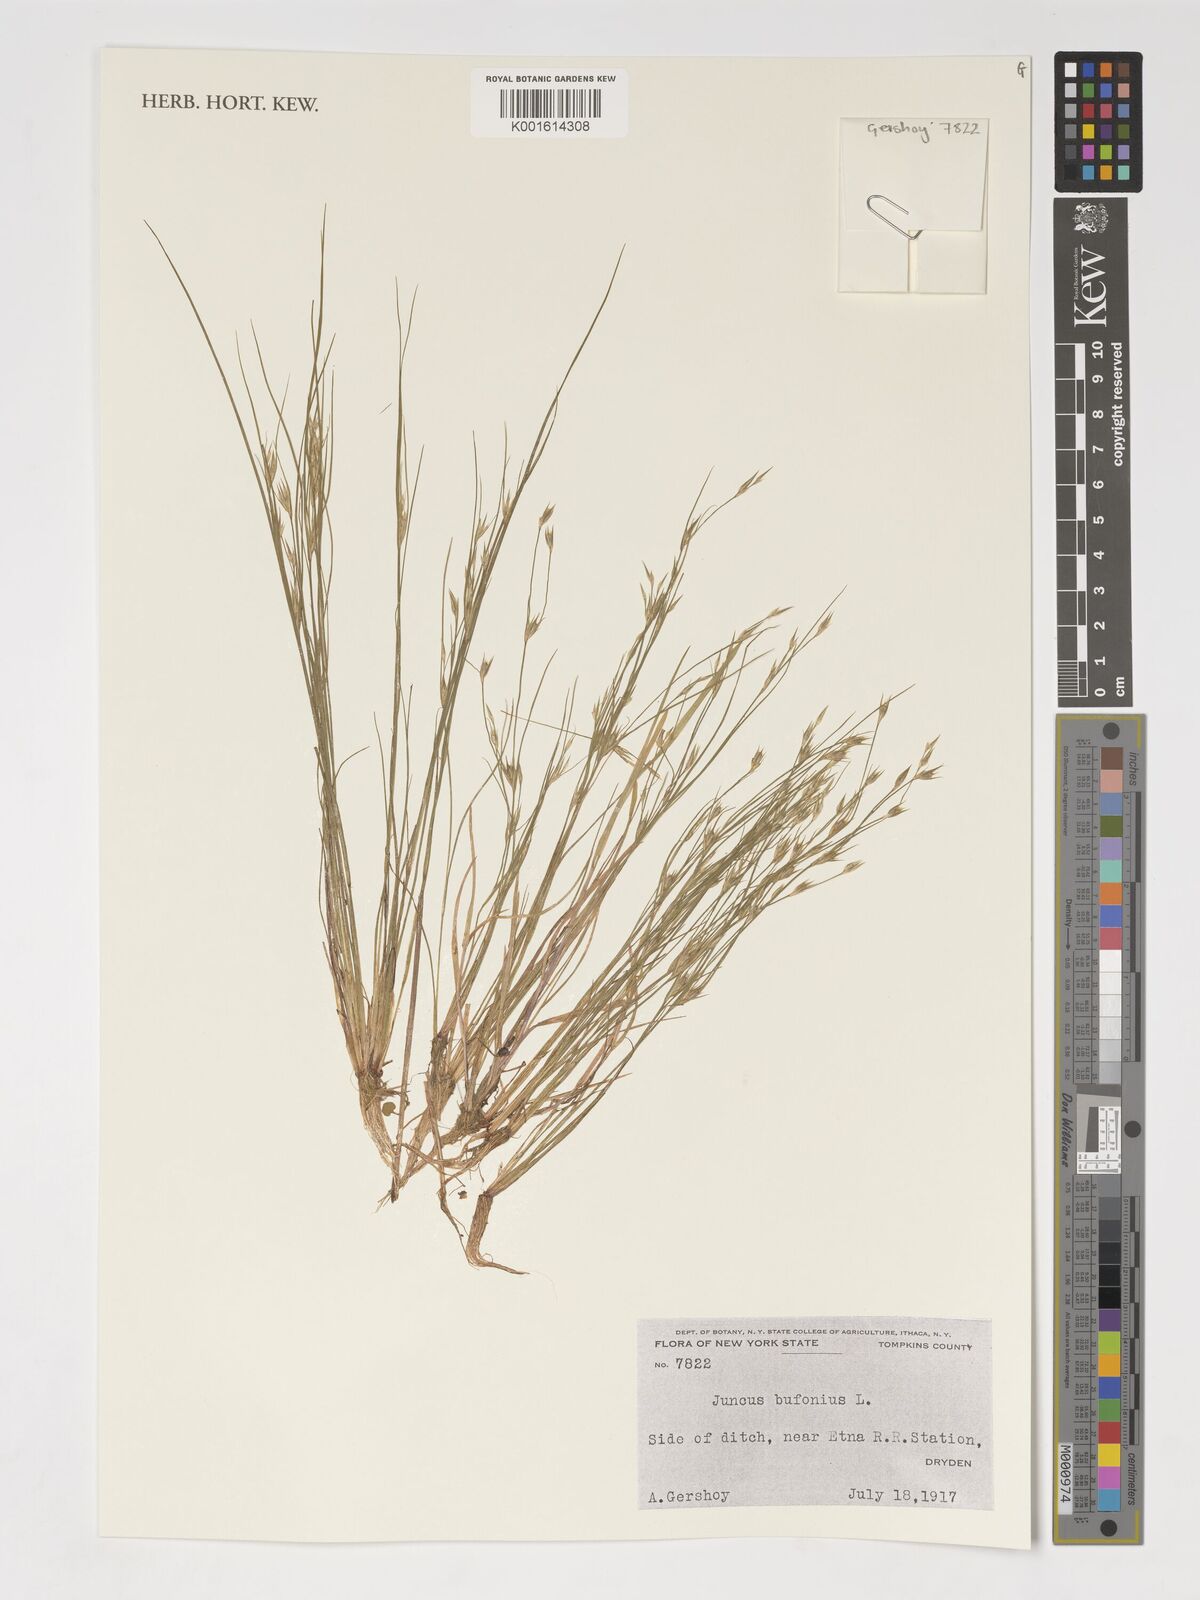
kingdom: Plantae
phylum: Tracheophyta
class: Liliopsida
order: Poales
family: Juncaceae
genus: Juncus
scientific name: Juncus bufonius
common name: Toad rush
